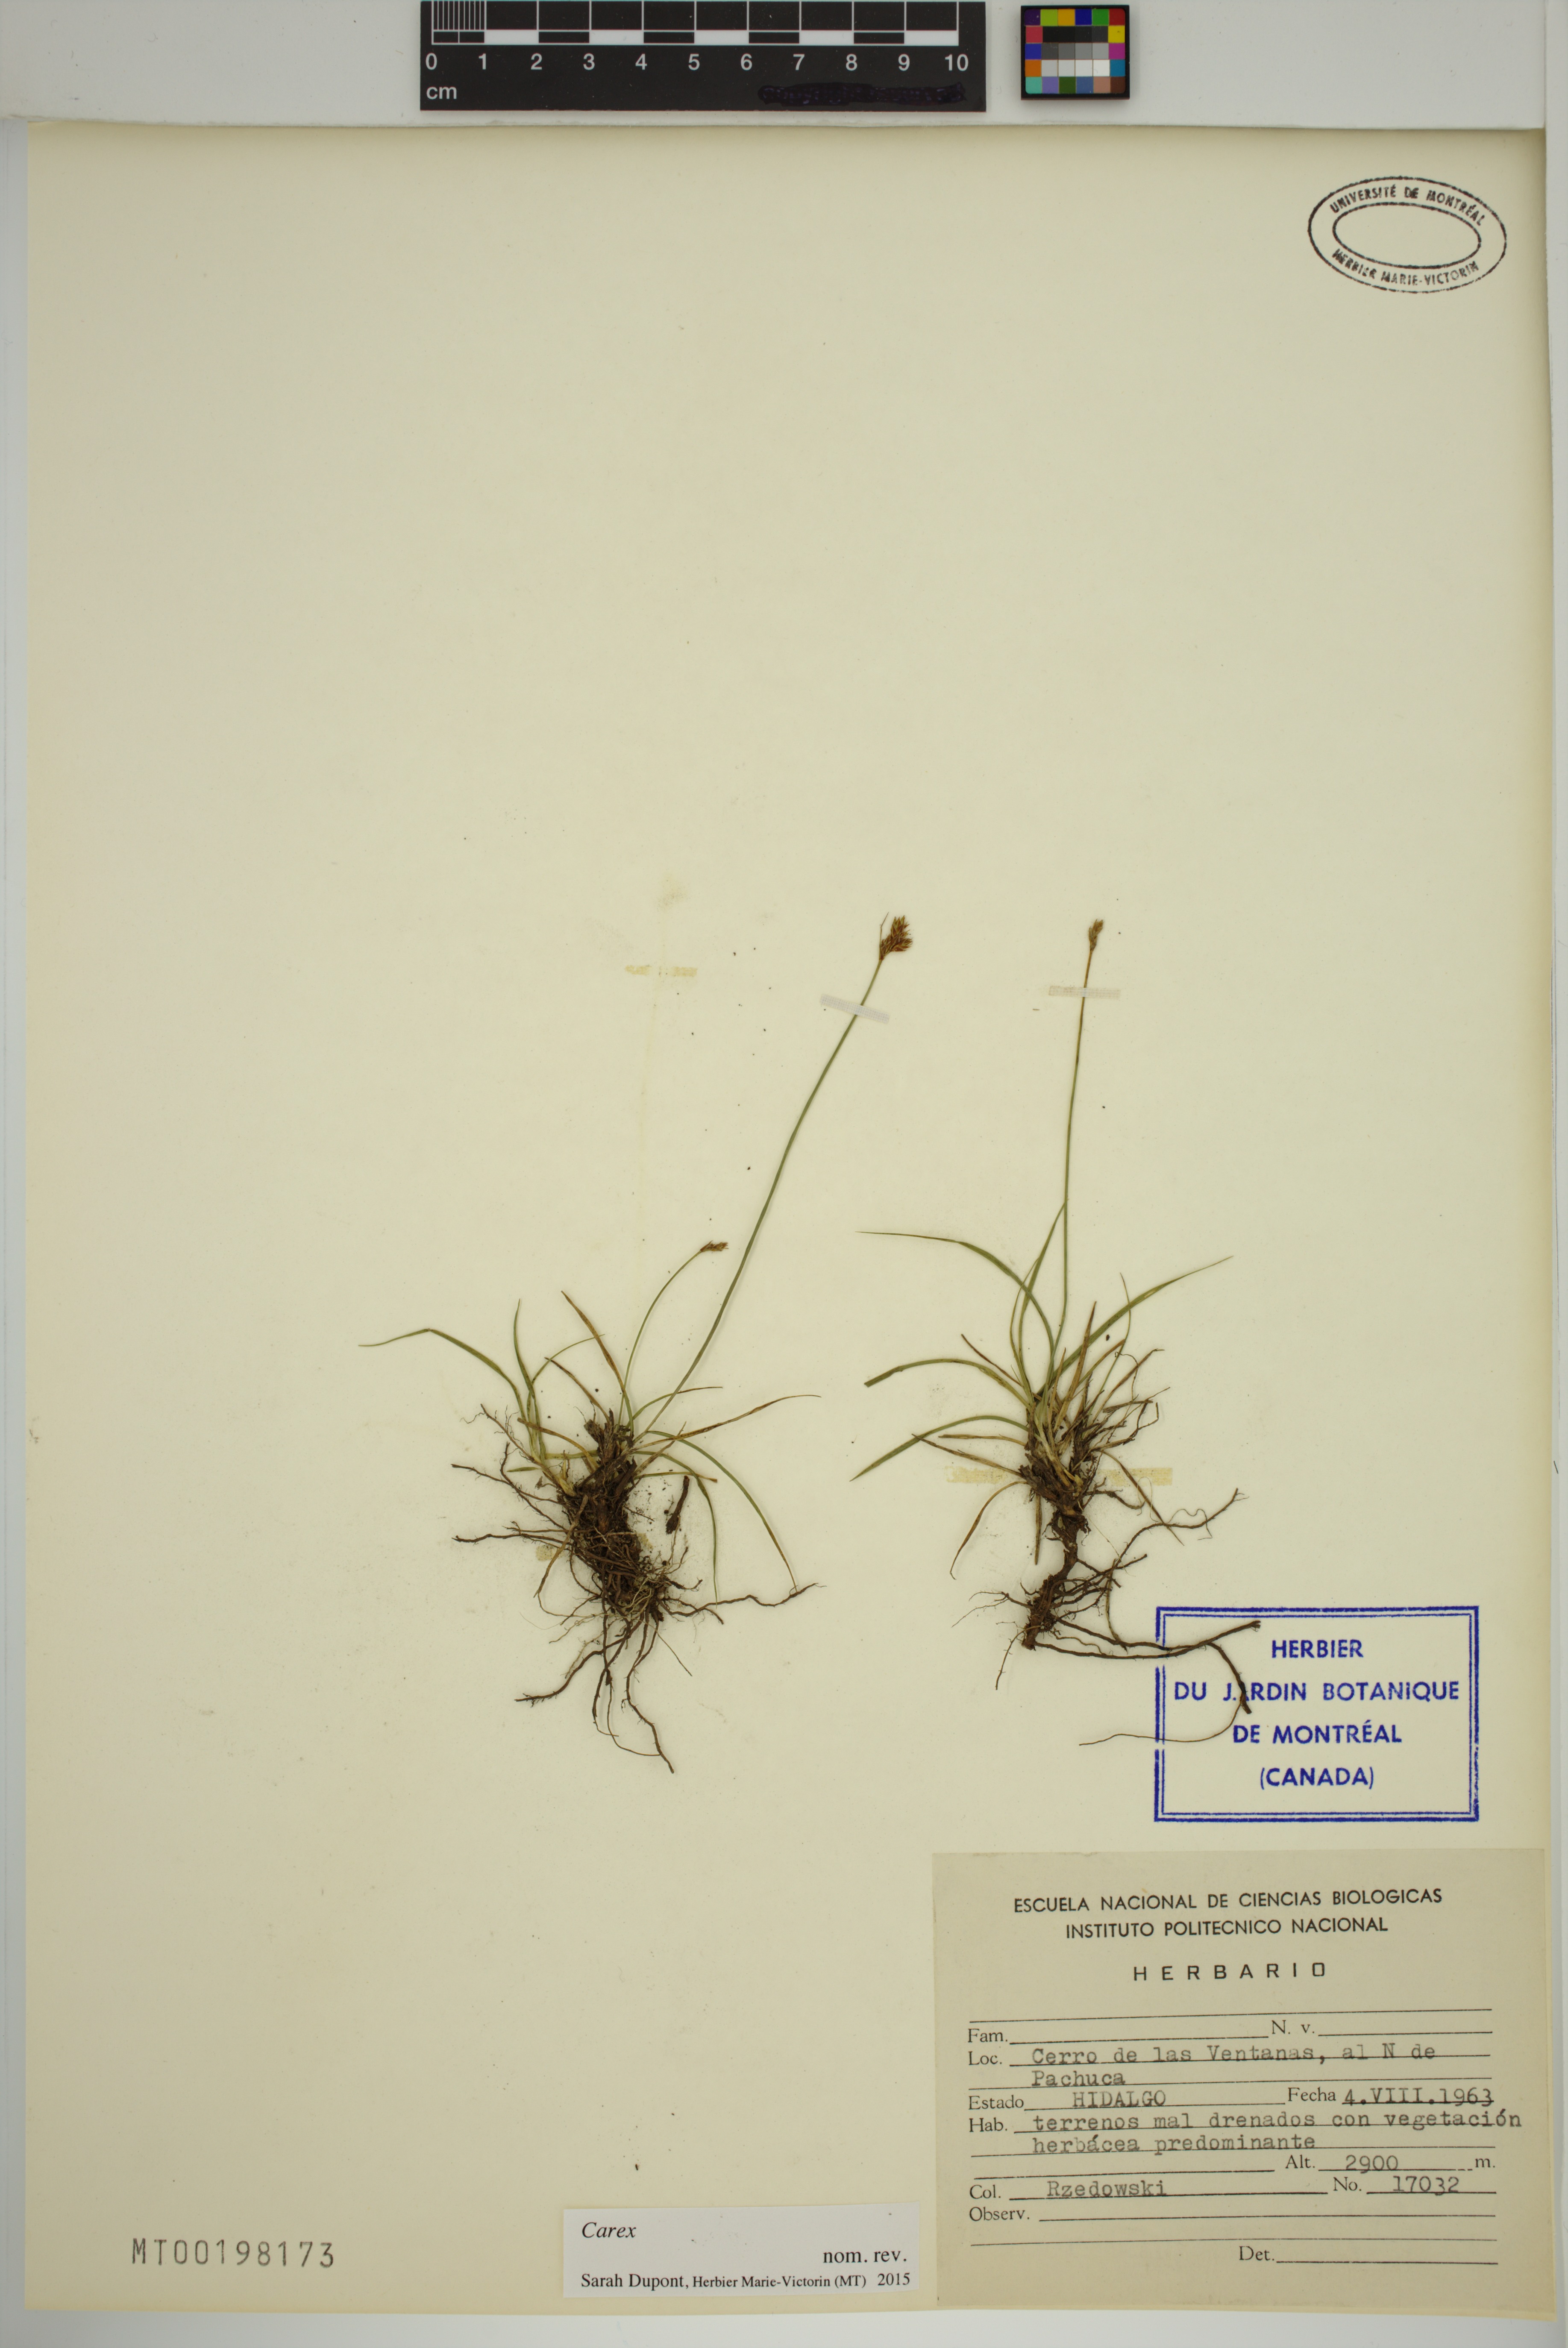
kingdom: Plantae
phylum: Tracheophyta
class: Liliopsida
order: Poales
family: Cyperaceae
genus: Carex
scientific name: Carex
